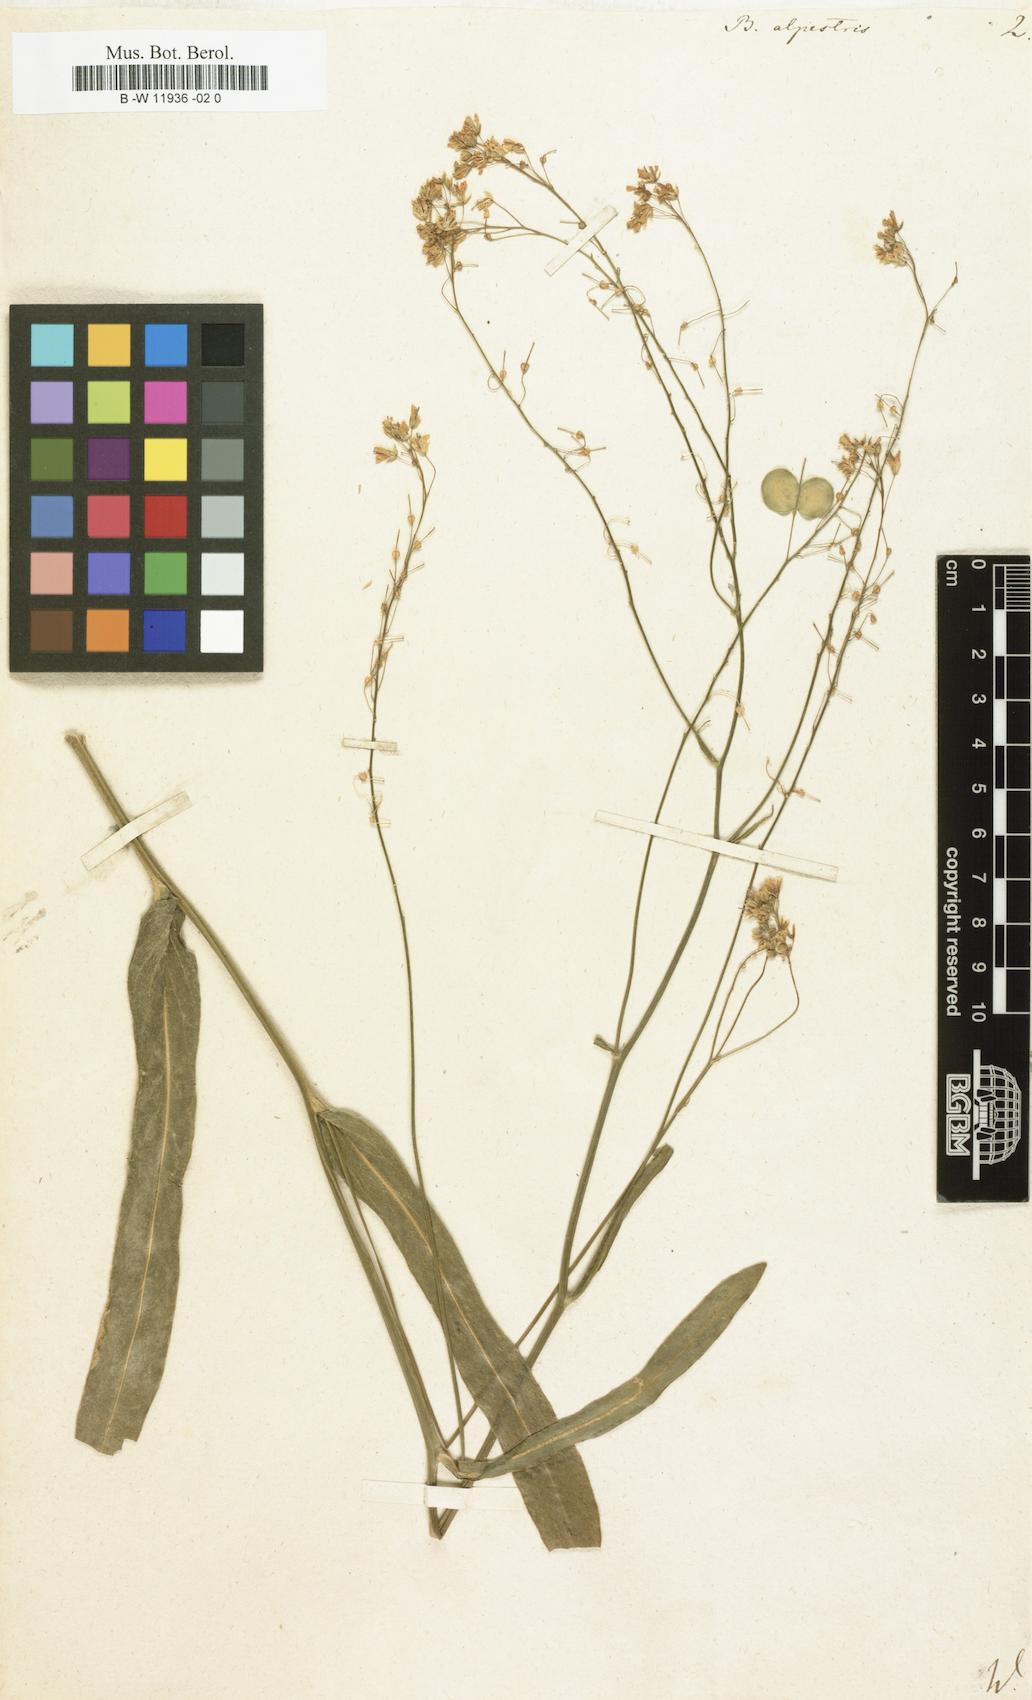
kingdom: Plantae
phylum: Tracheophyta
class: Magnoliopsida
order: Brassicales
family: Brassicaceae
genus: Biscutella
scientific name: Biscutella laevigata
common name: Buckler mustard
